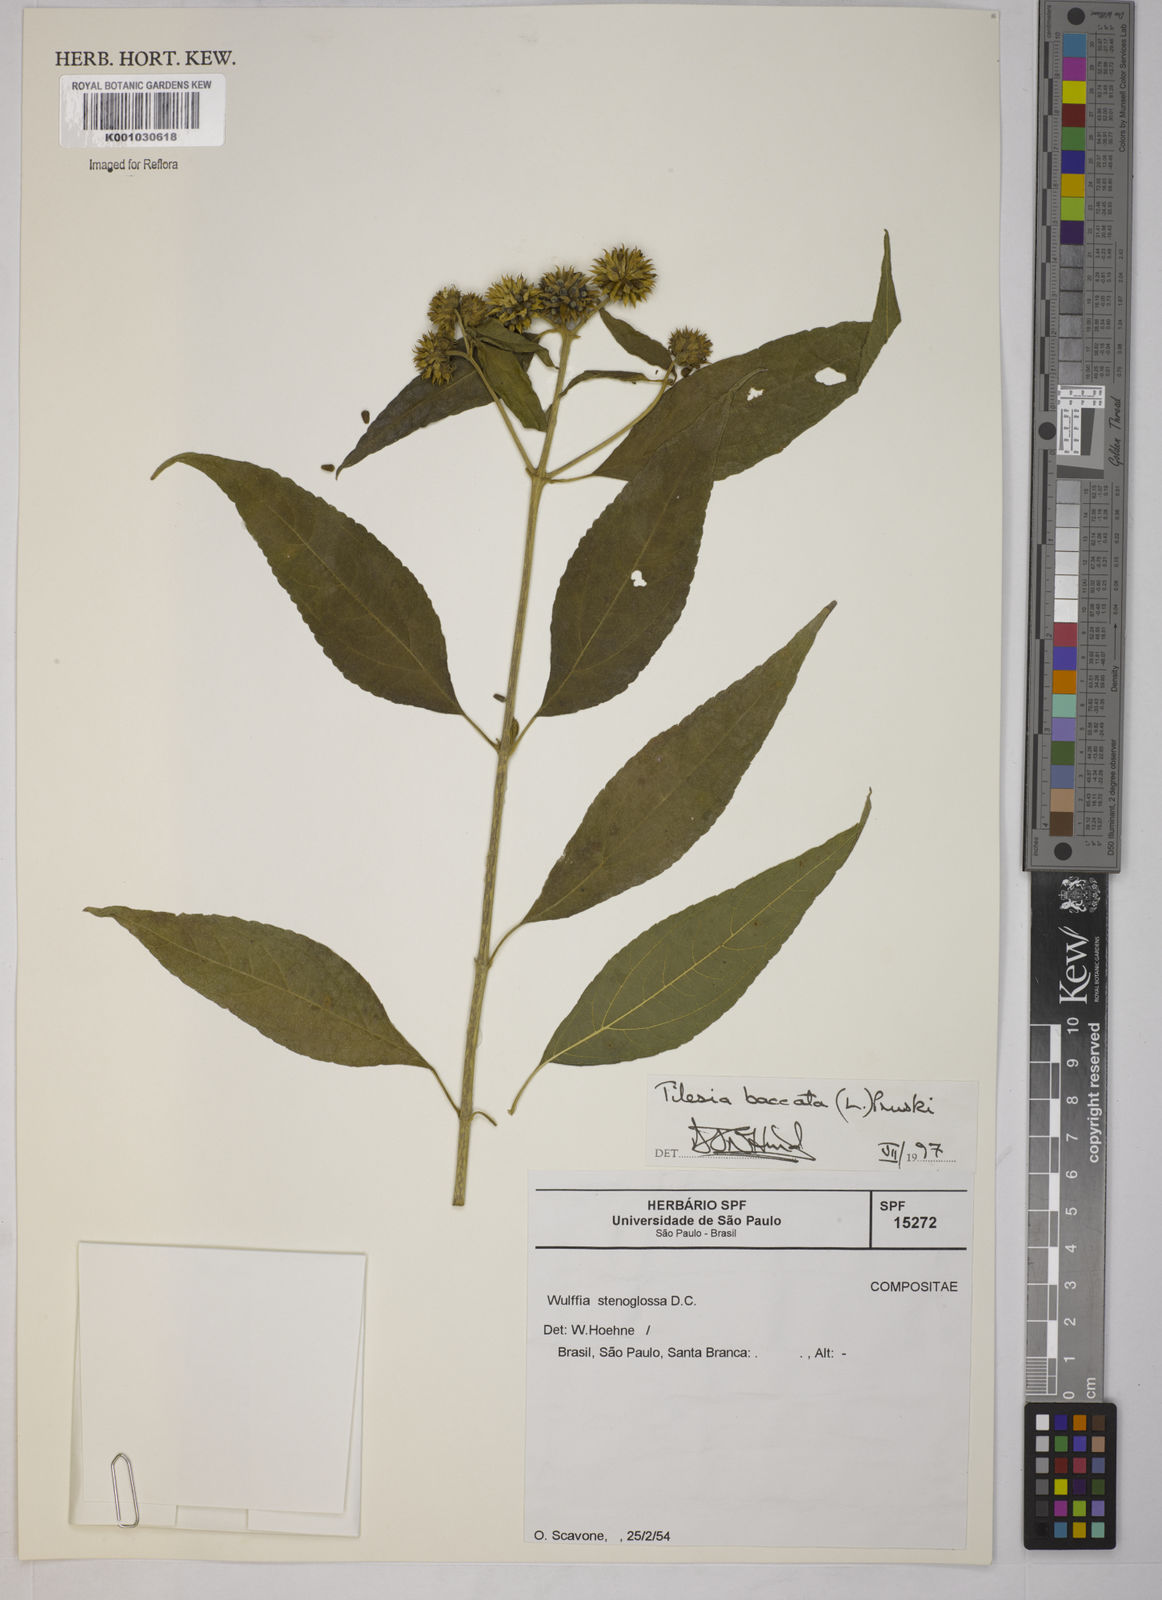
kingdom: Plantae
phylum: Tracheophyta
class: Magnoliopsida
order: Asterales
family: Asteraceae
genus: Tilesia
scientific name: Tilesia baccata
